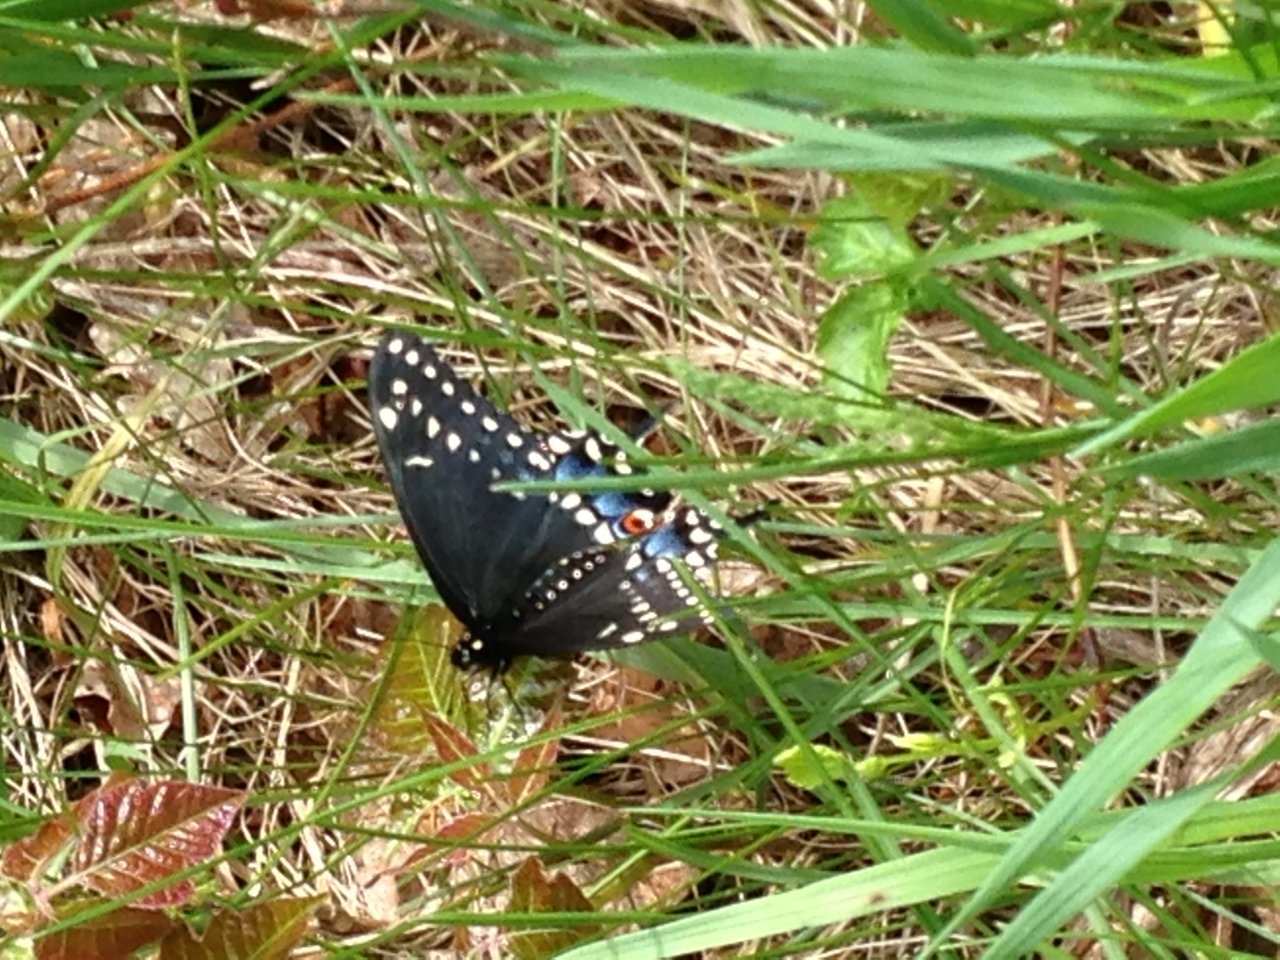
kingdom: Animalia
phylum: Arthropoda
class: Insecta
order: Lepidoptera
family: Papilionidae
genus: Papilio
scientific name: Papilio polyxenes
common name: Black Swallowtail
